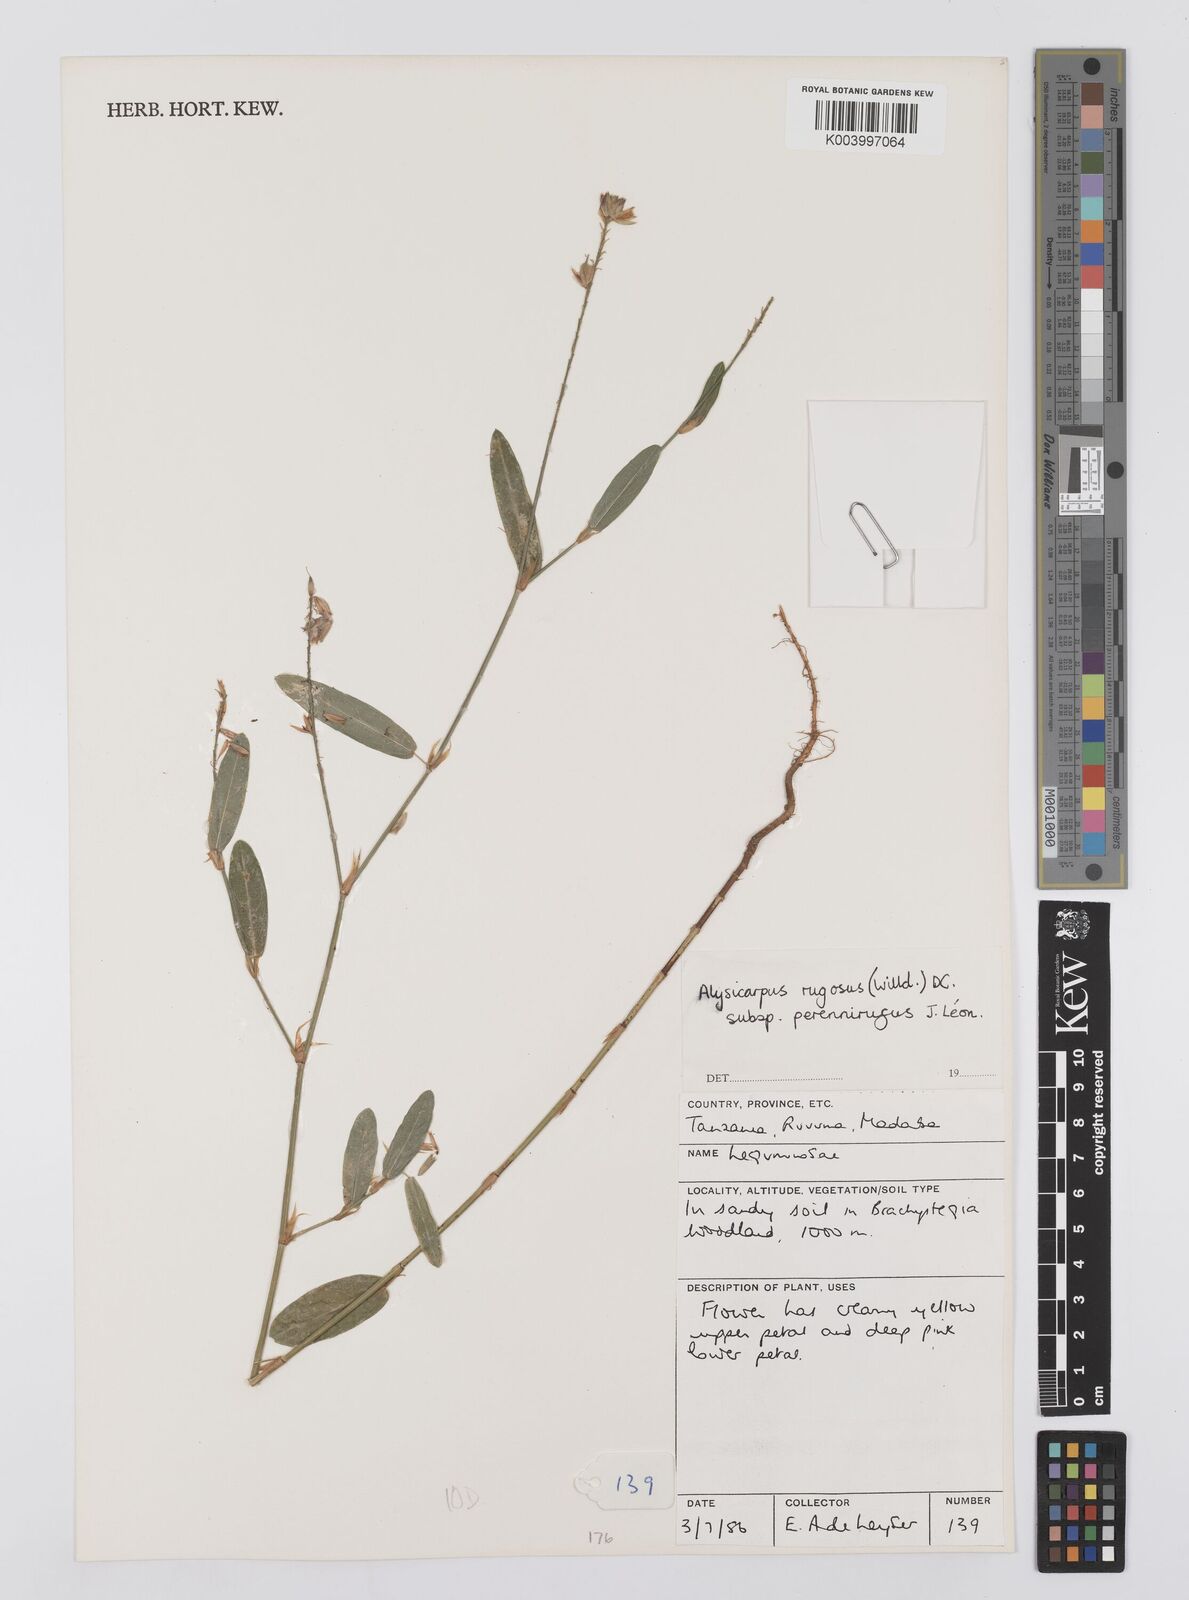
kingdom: Plantae
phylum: Tracheophyta
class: Magnoliopsida
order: Fabales
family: Fabaceae
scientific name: Fabaceae
